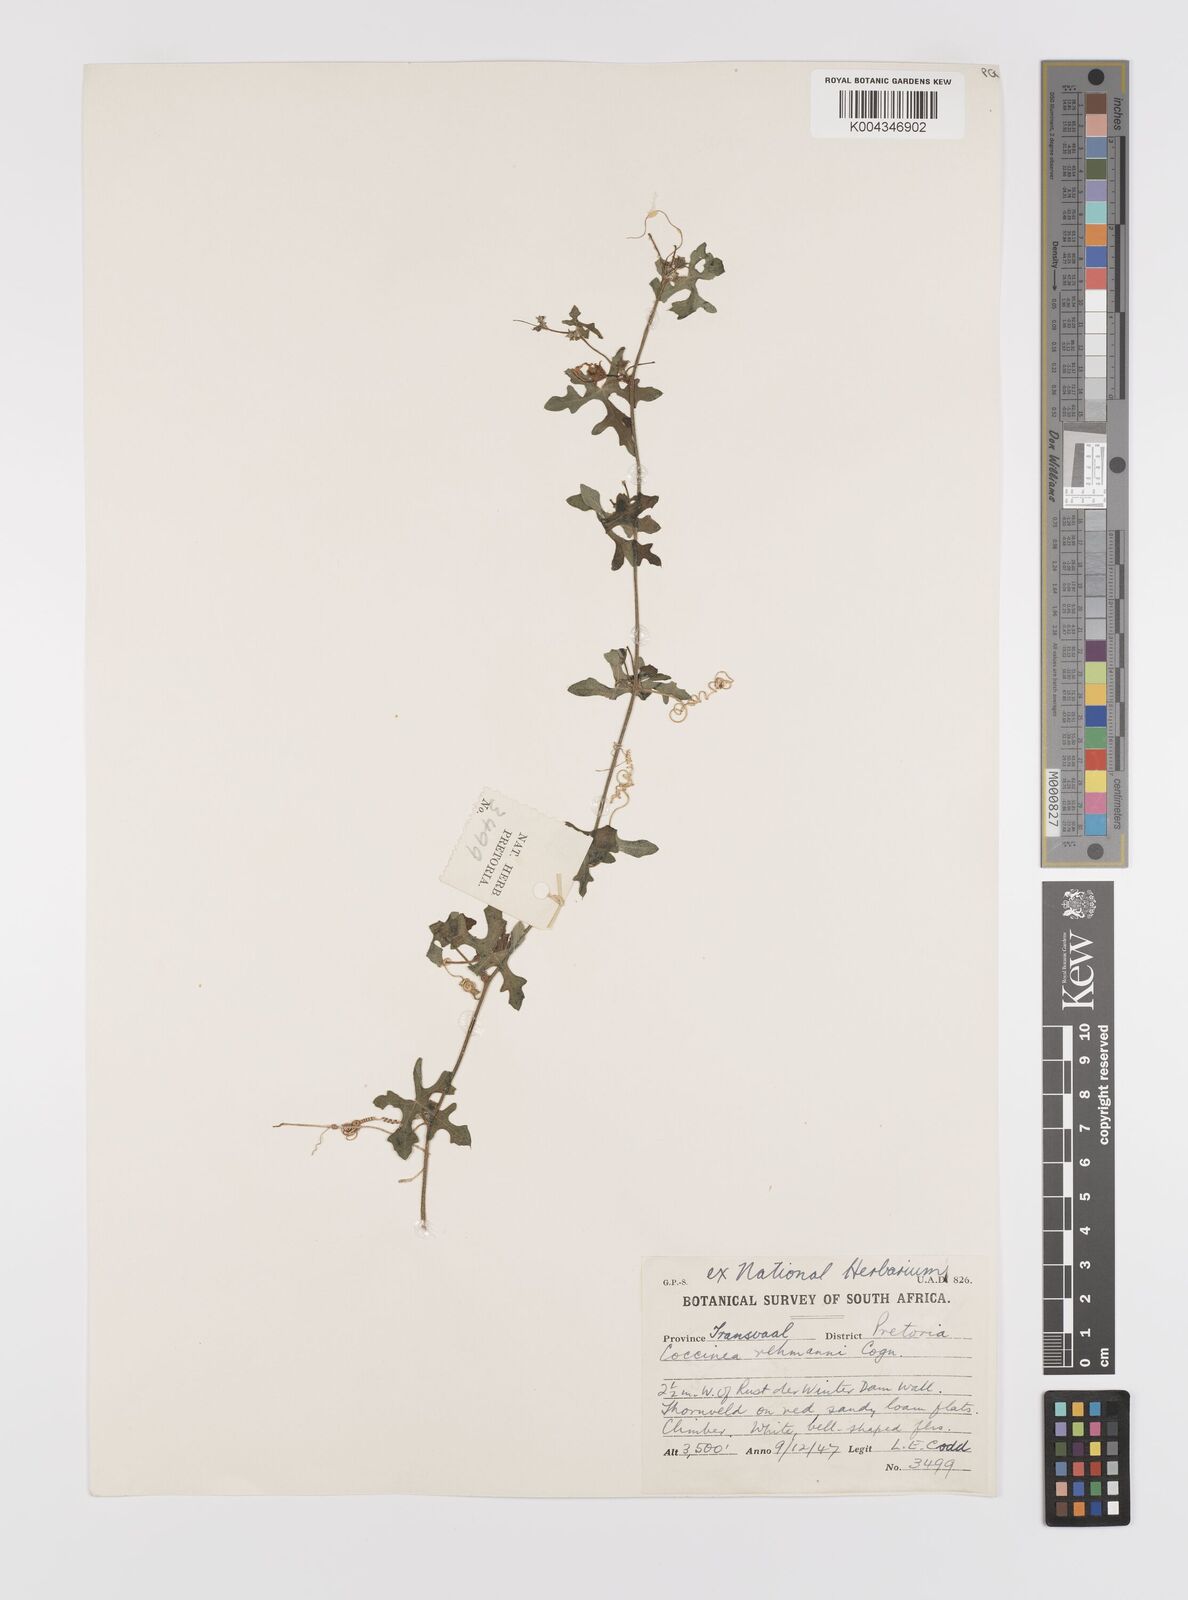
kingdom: Plantae
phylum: Tracheophyta
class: Magnoliopsida
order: Cucurbitales
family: Cucurbitaceae
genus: Coccinia
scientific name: Coccinia rehmannii
